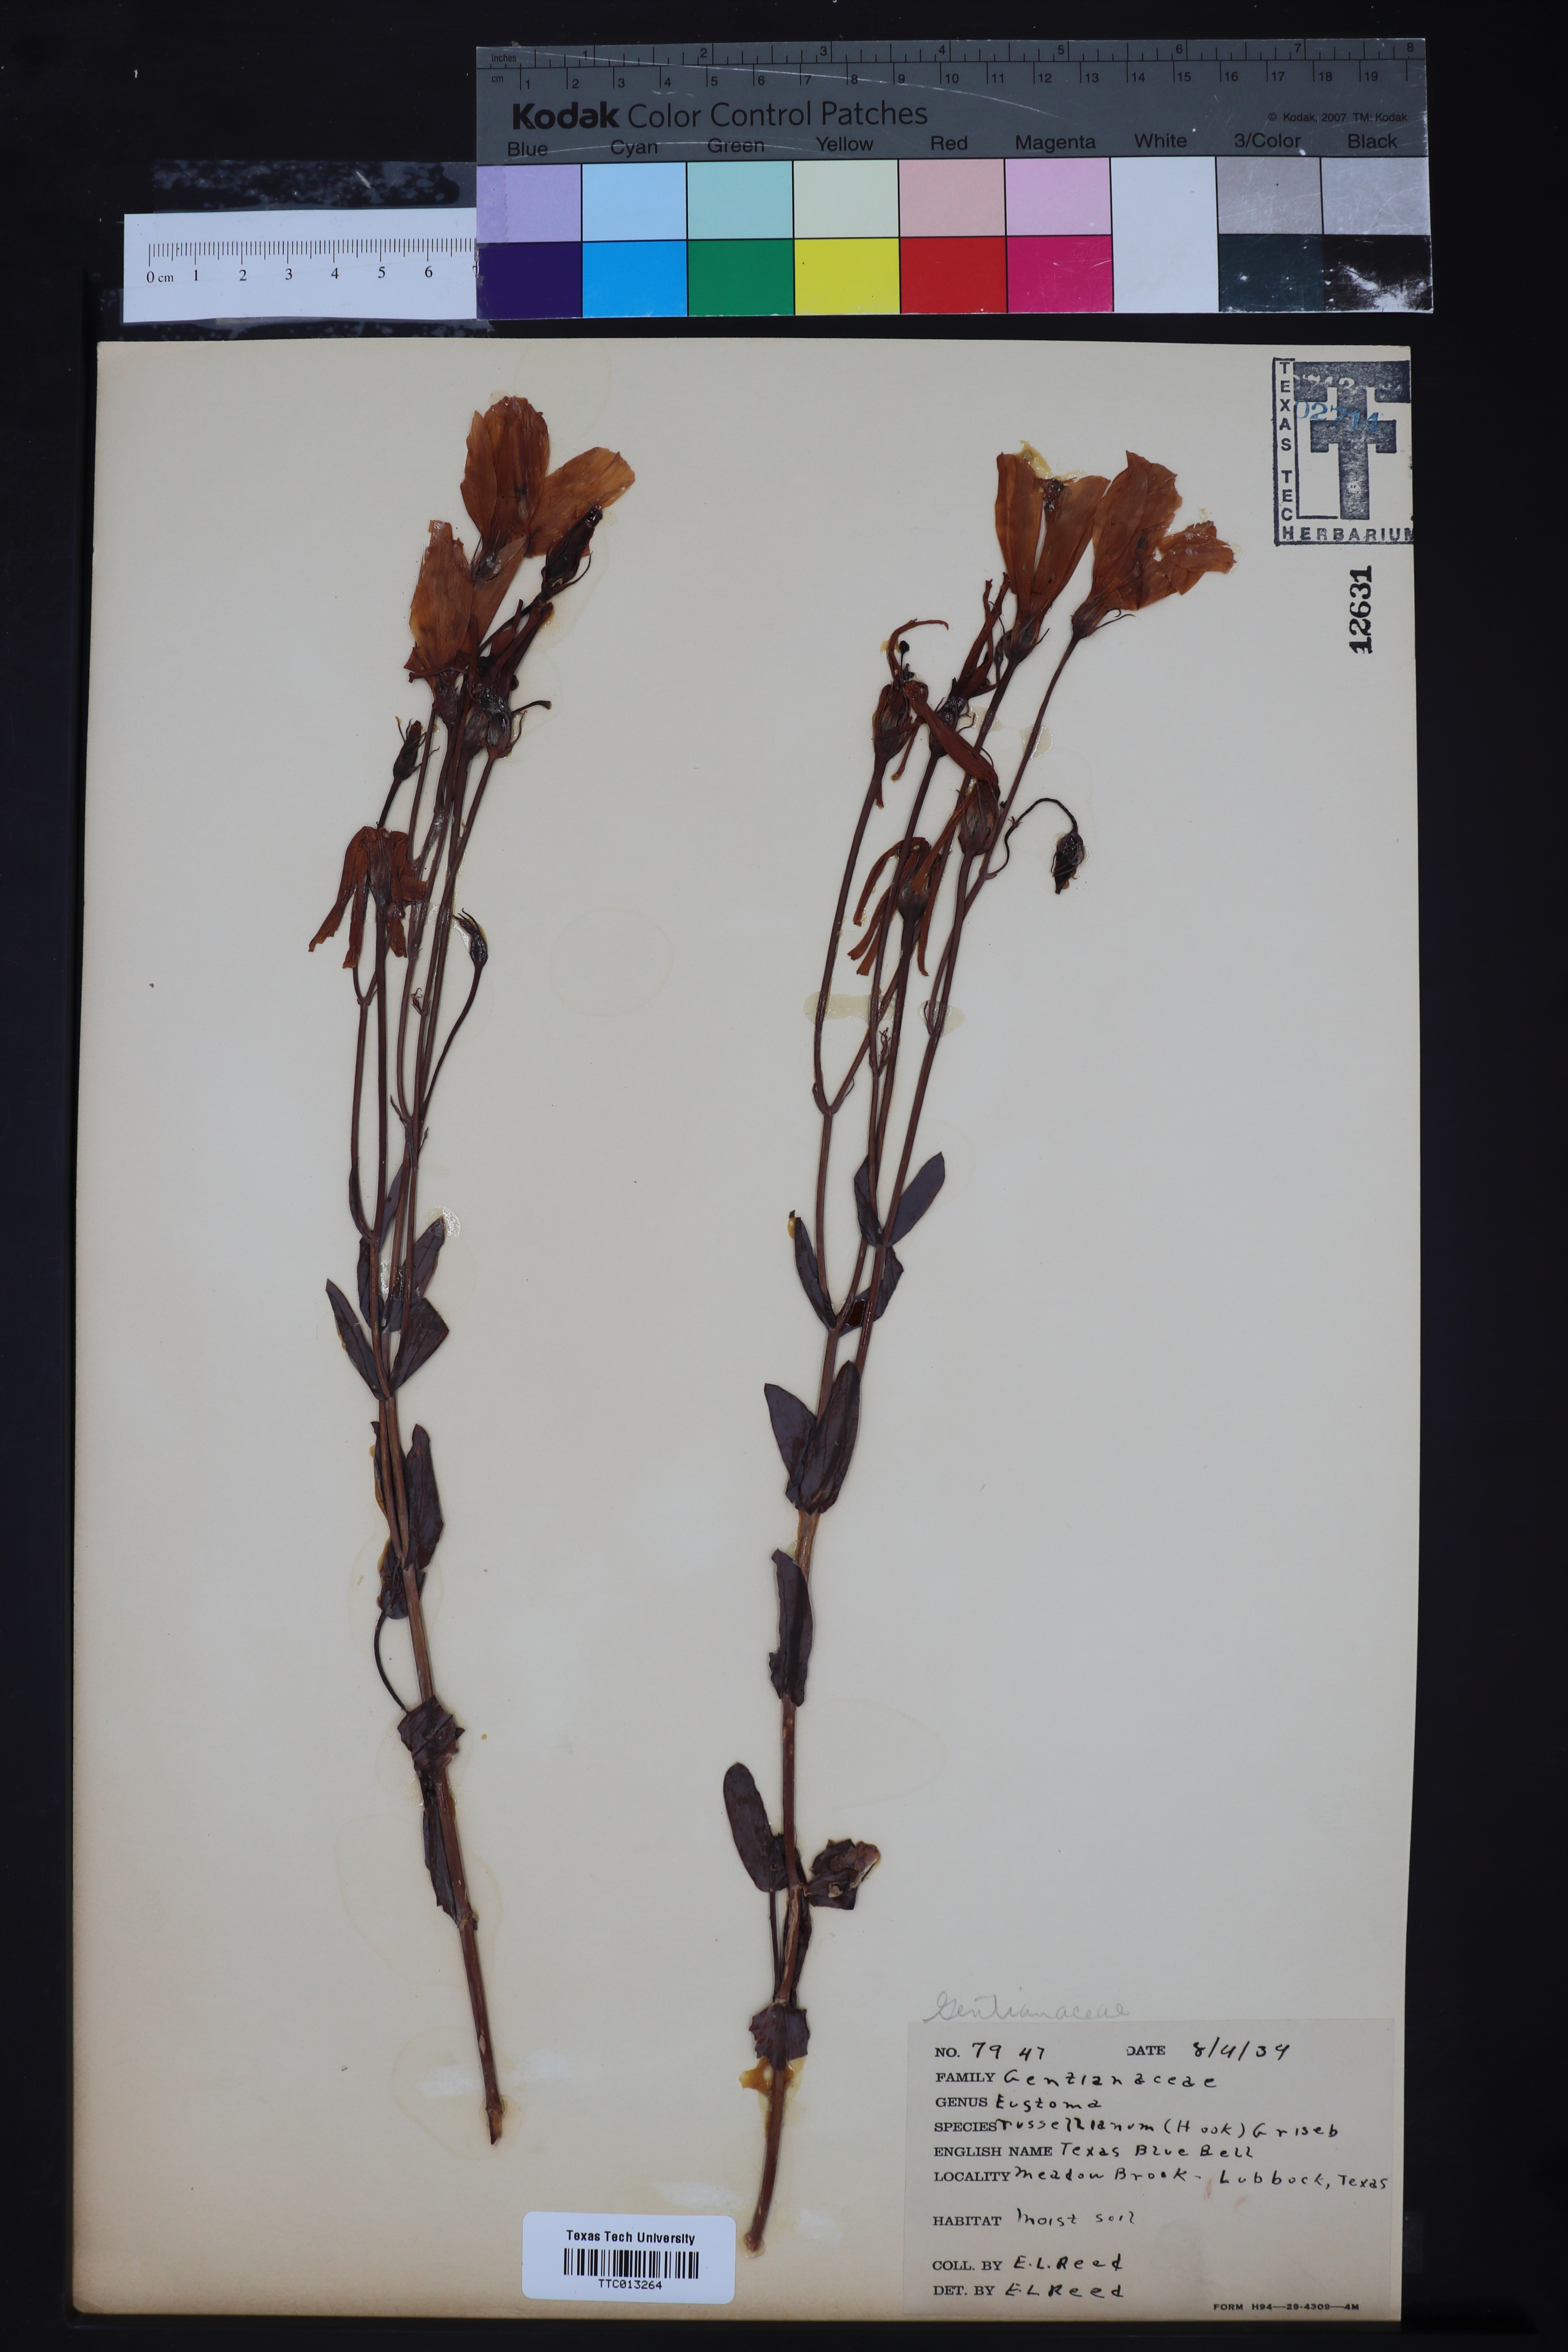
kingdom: Plantae
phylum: Tracheophyta
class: Magnoliopsida
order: Gentianales
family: Gentianaceae
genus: Eustoma
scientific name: Eustoma russellianum
